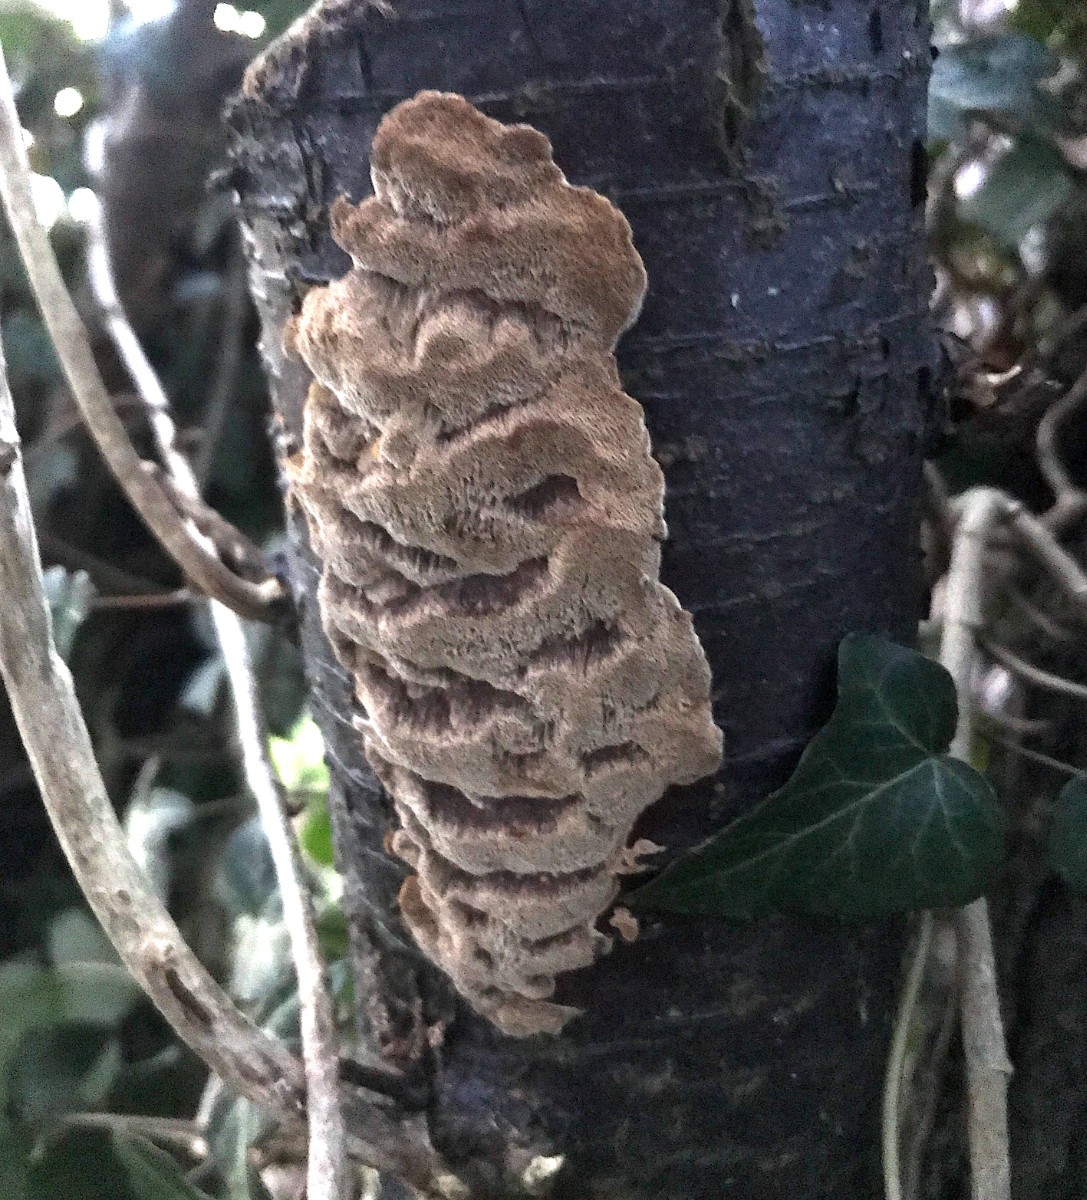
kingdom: Fungi
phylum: Basidiomycota
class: Agaricomycetes
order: Hymenochaetales
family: Hymenochaetaceae
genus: Phellinus
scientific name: Phellinus pomaceus
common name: blomme-ildporesvamp
